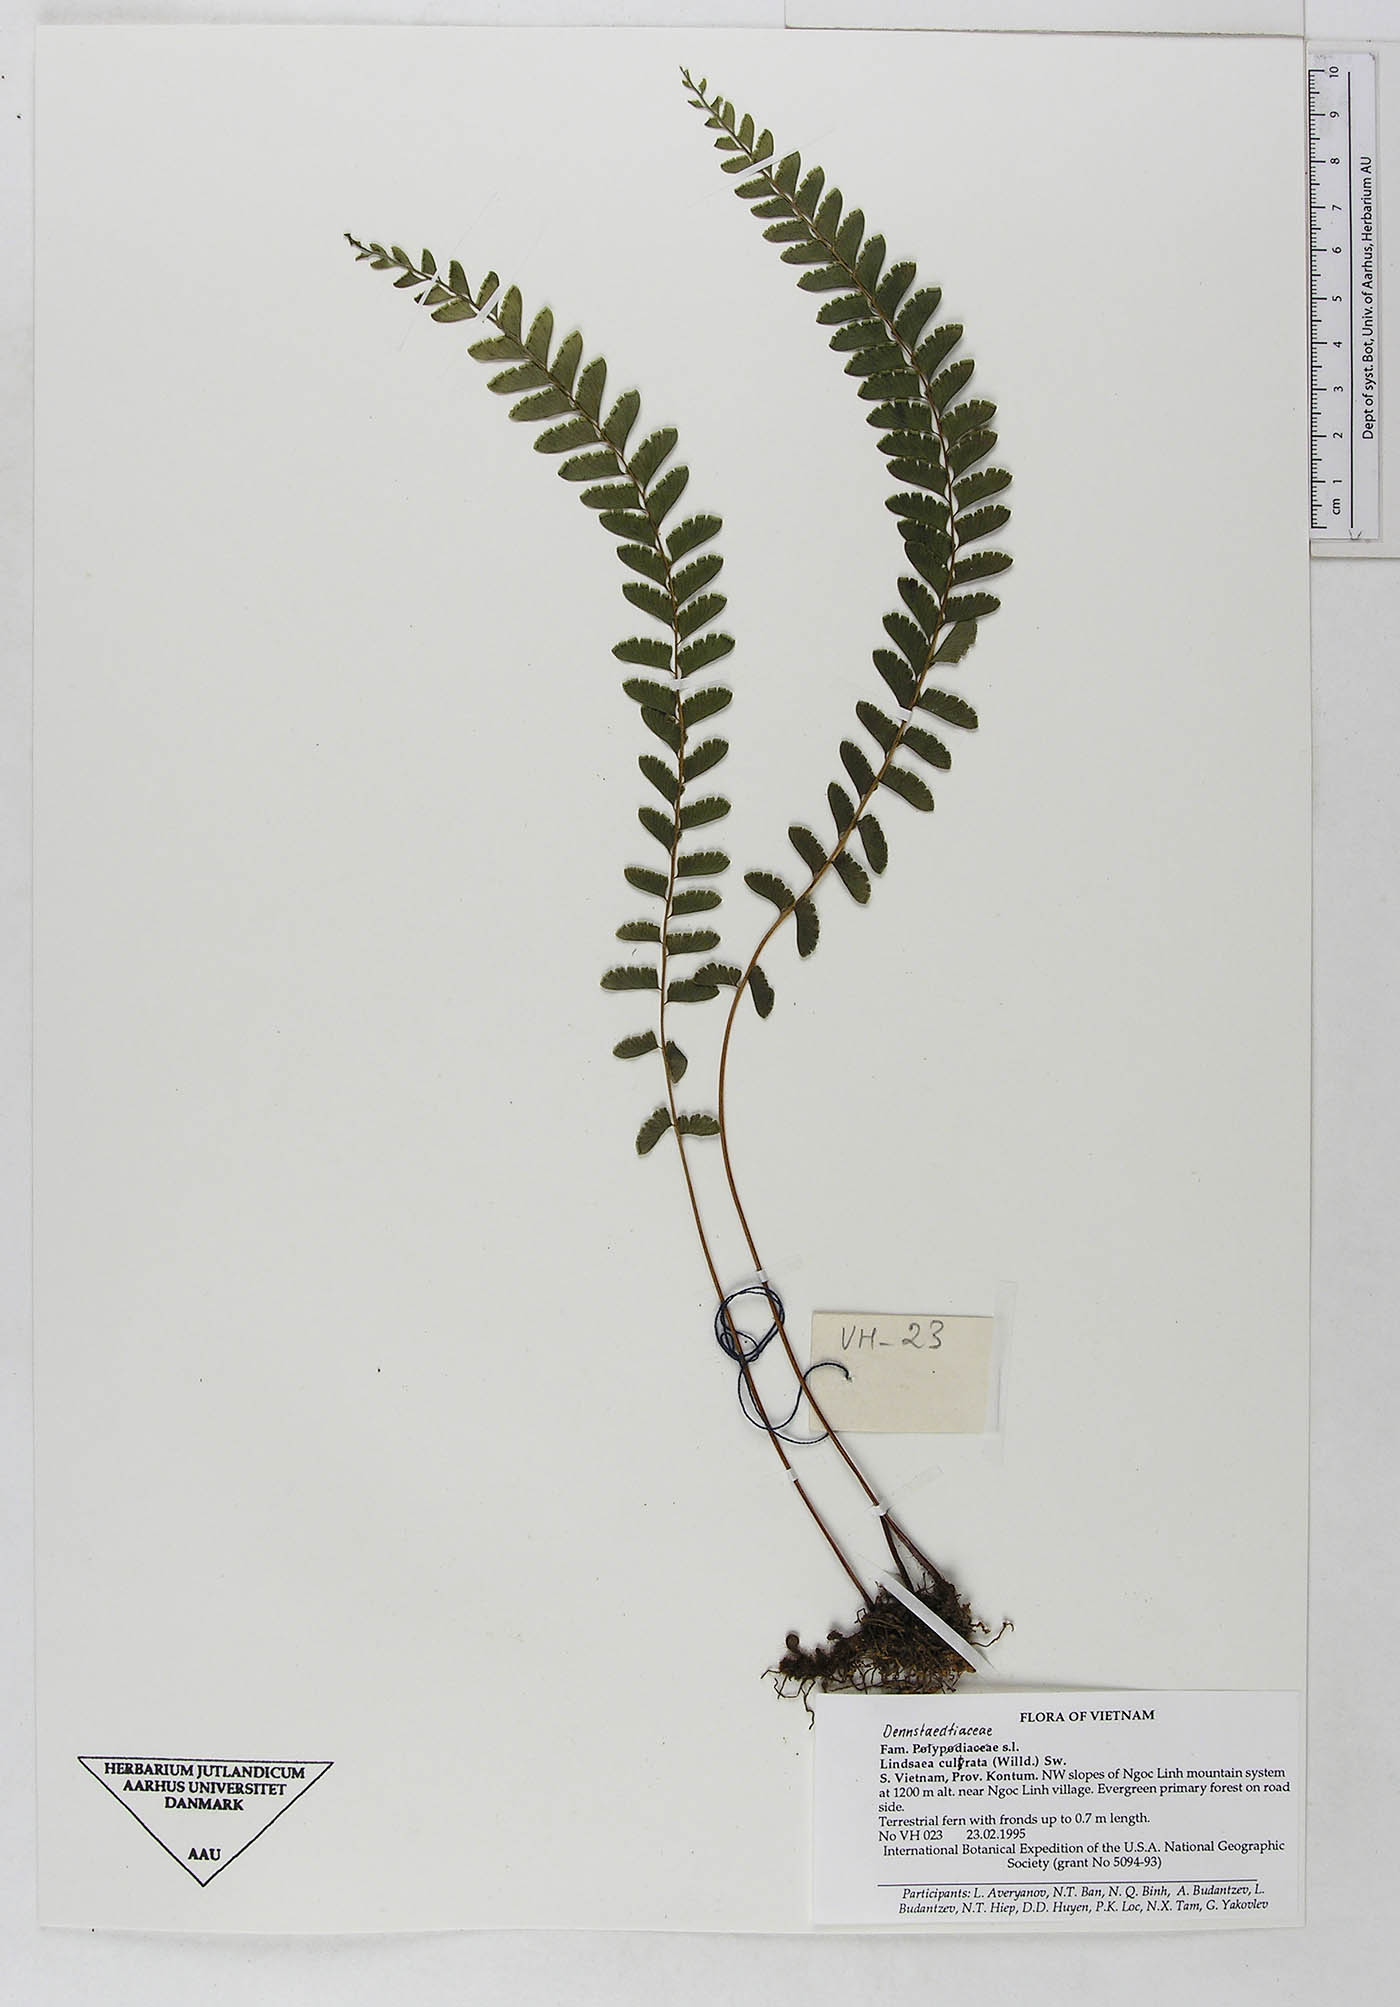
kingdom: Plantae
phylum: Tracheophyta
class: Polypodiopsida
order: Polypodiales
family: Lindsaeaceae
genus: Lindsaea
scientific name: Lindsaea cultrata
